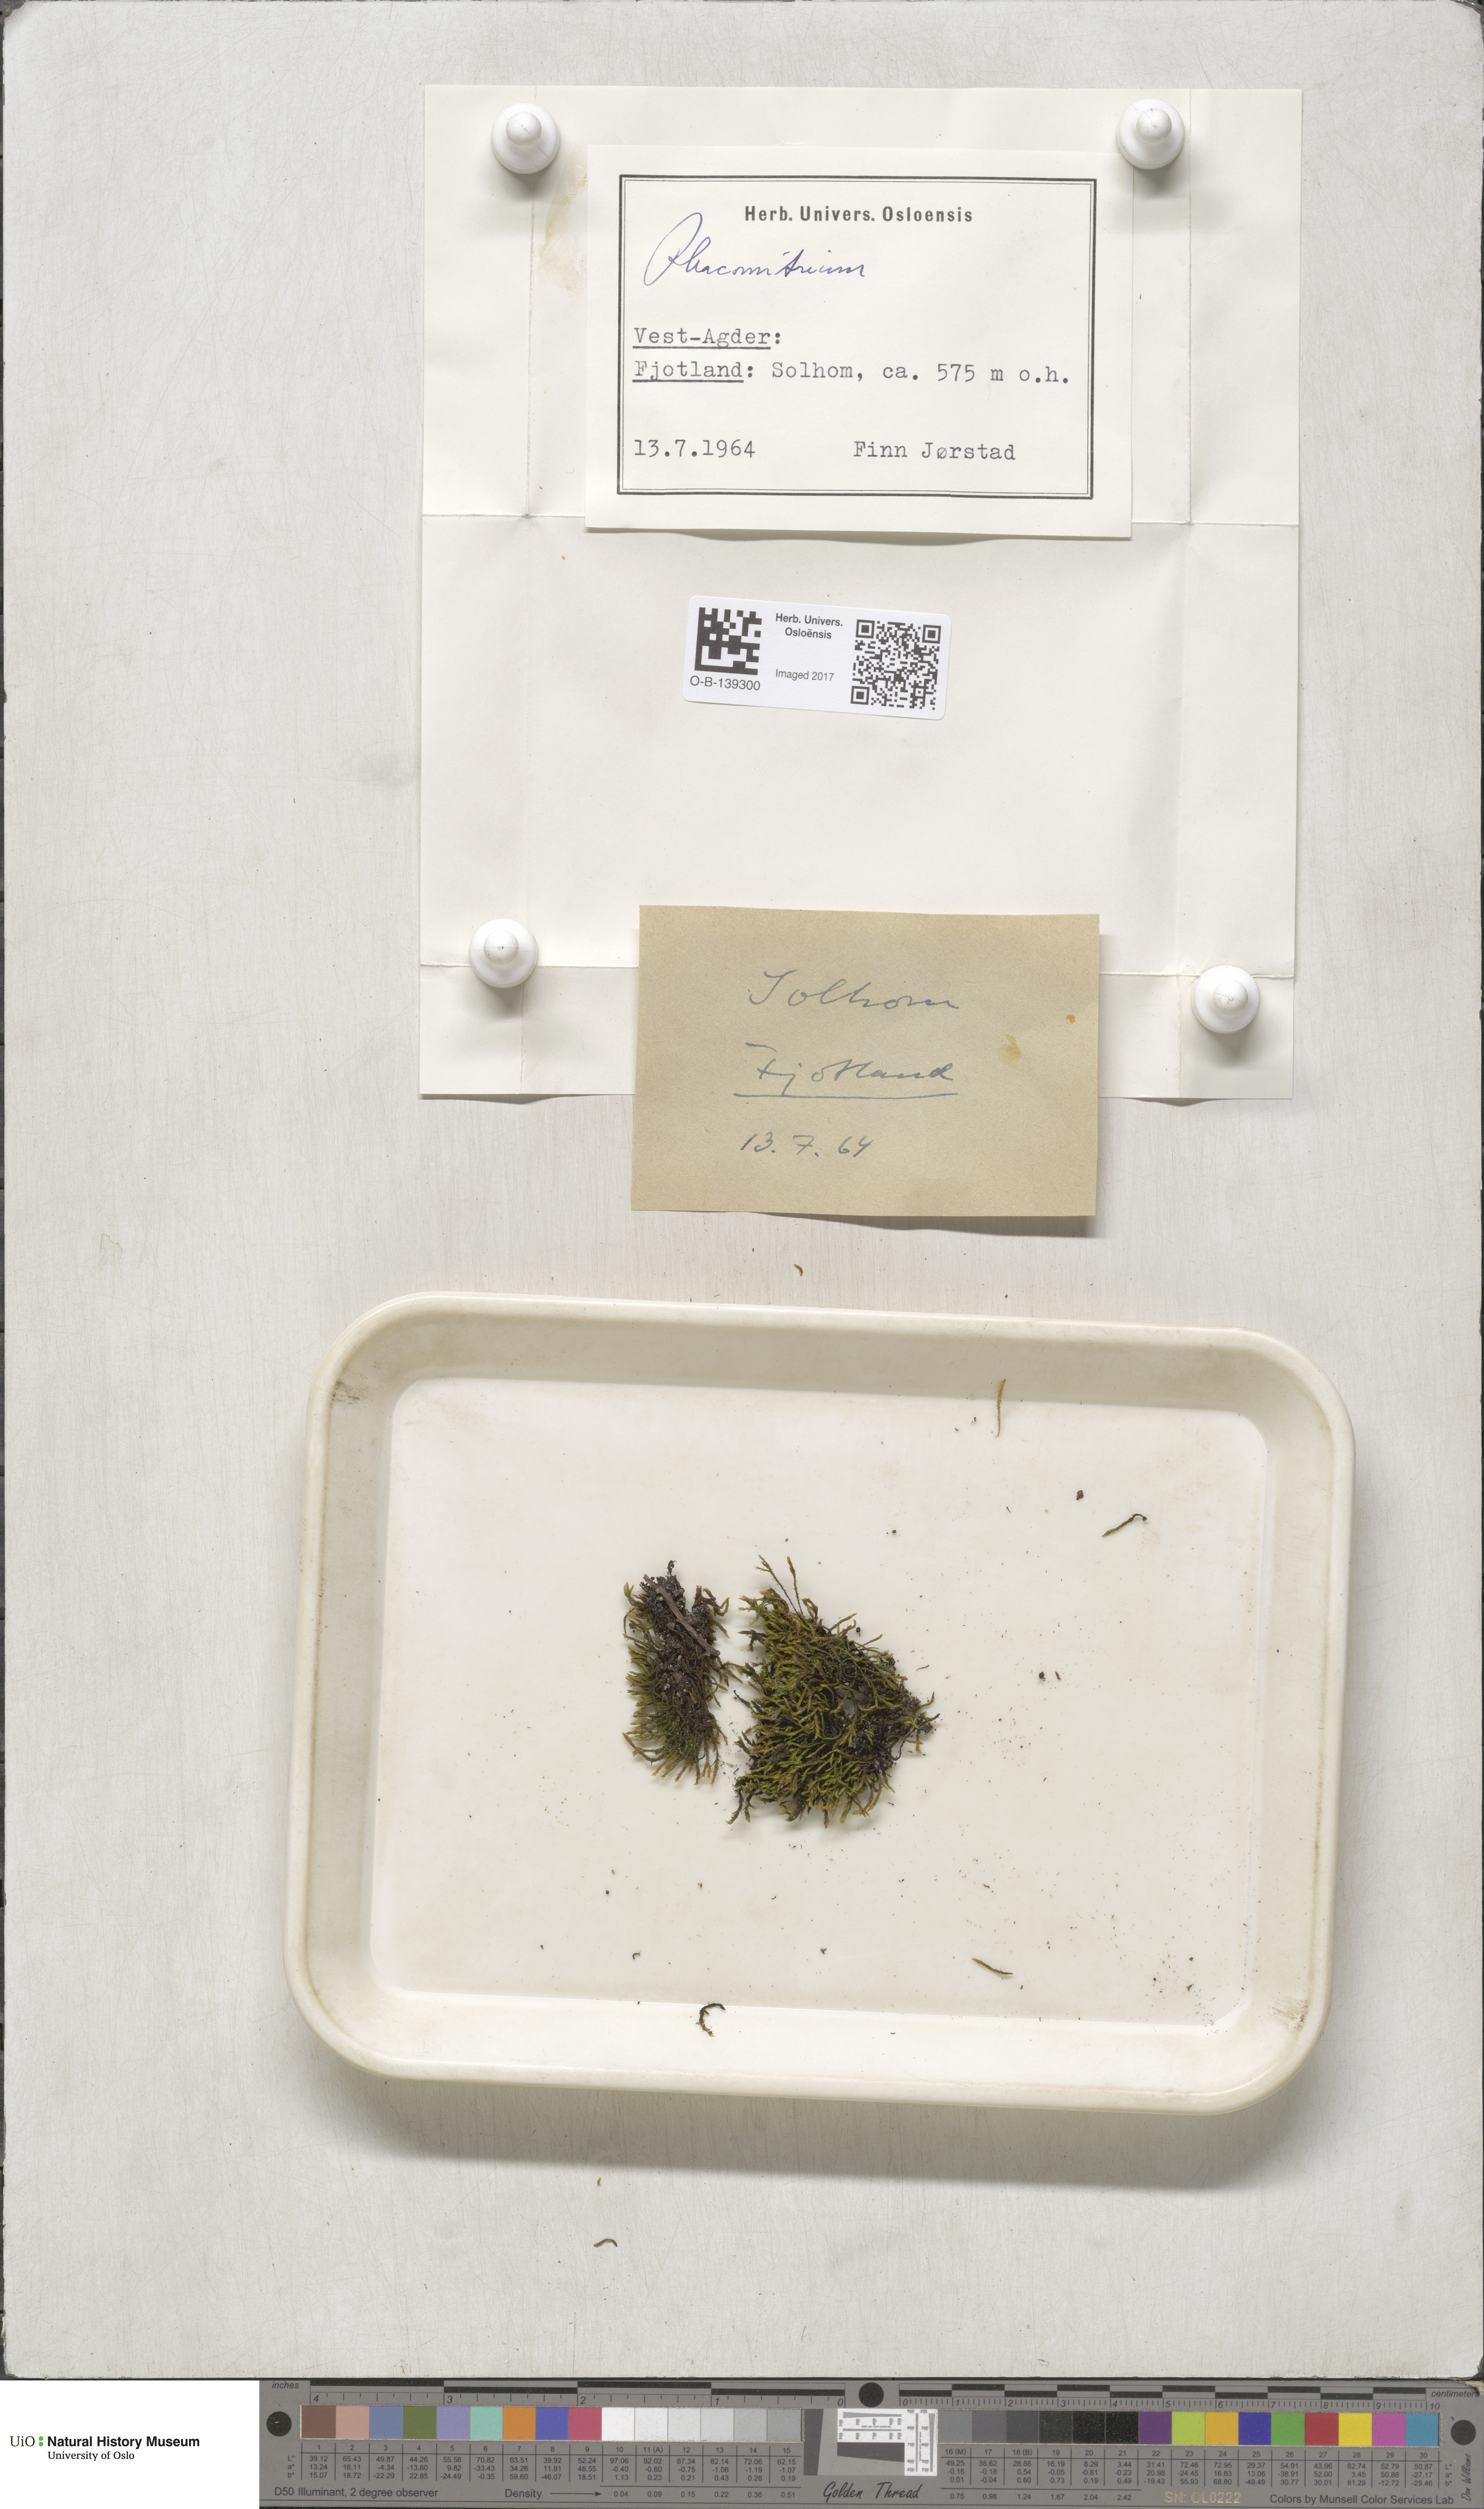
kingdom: Plantae
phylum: Bryophyta
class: Bryopsida
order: Grimmiales
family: Grimmiaceae
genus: Racomitrium
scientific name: Racomitrium
